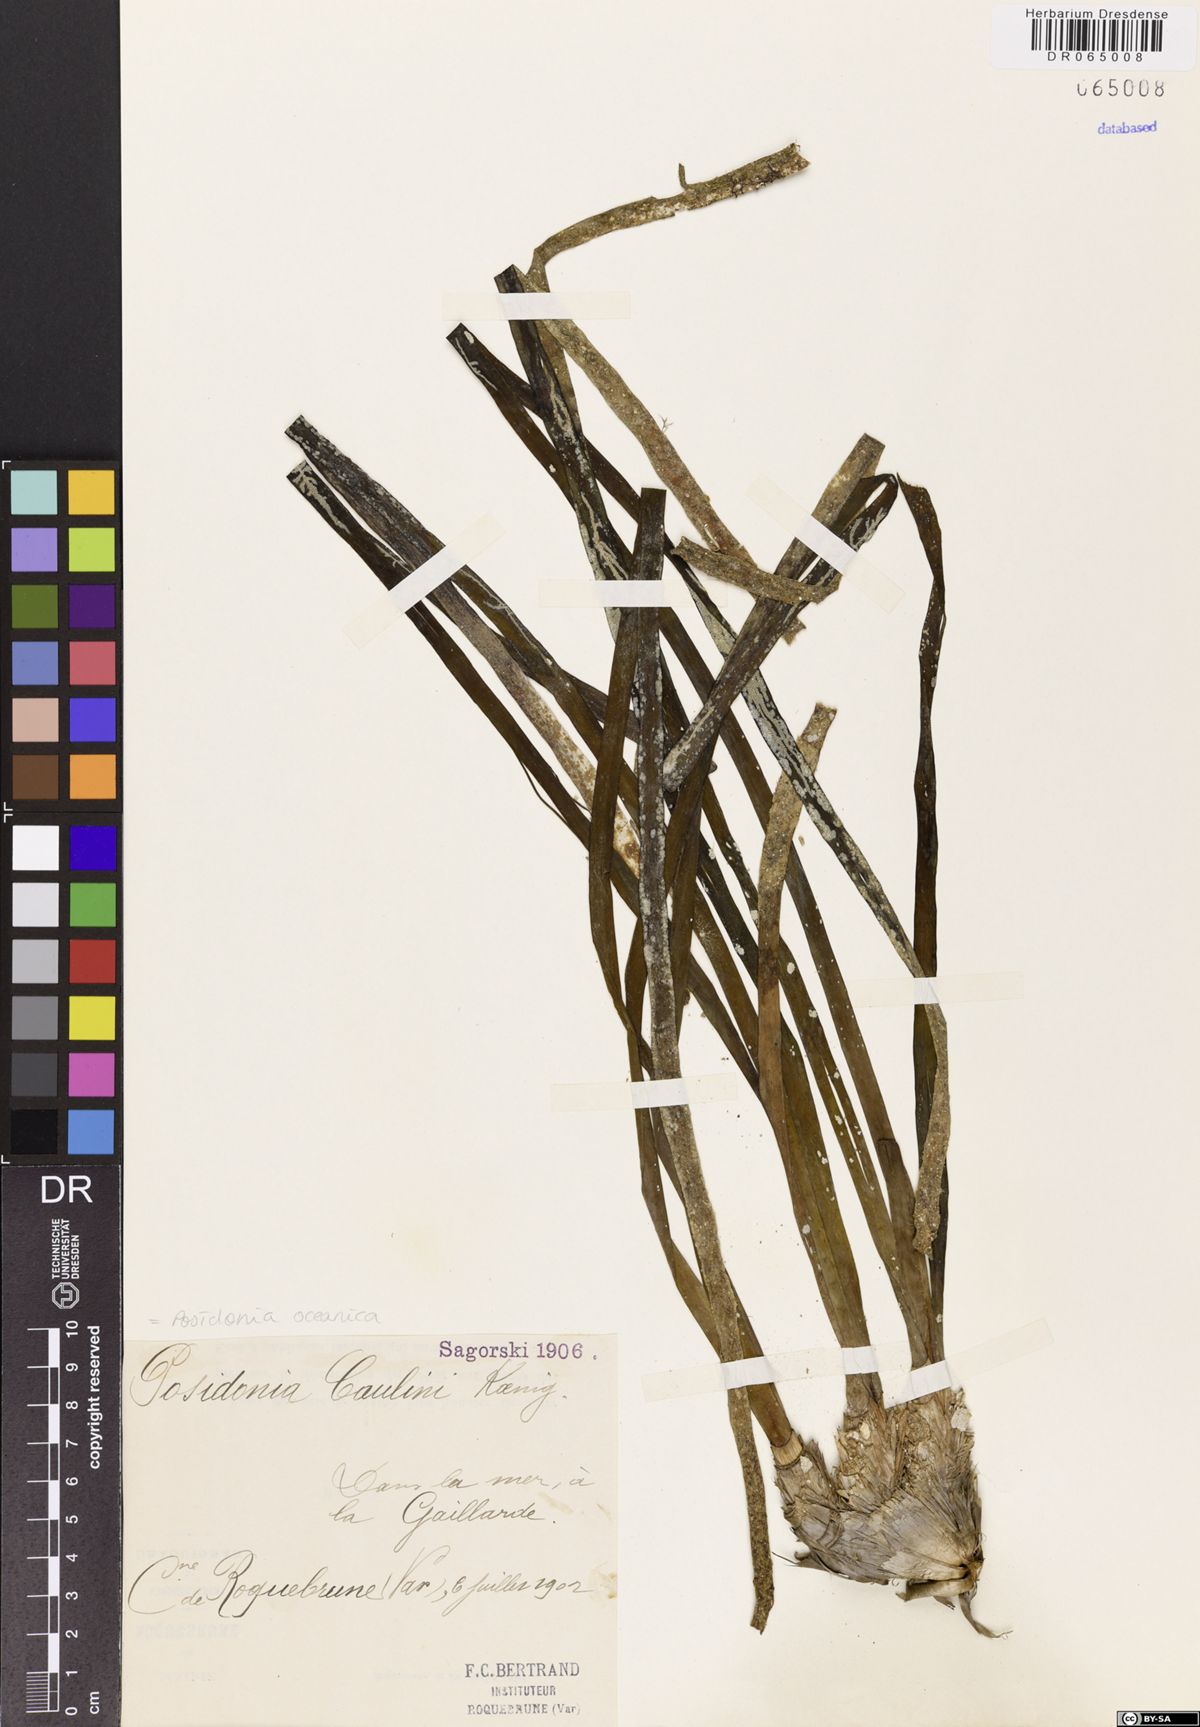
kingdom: Plantae
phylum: Tracheophyta
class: Liliopsida
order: Alismatales
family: Posidoniaceae
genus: Posidonia
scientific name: Posidonia oceanica
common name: Mediterranean tapeweed
